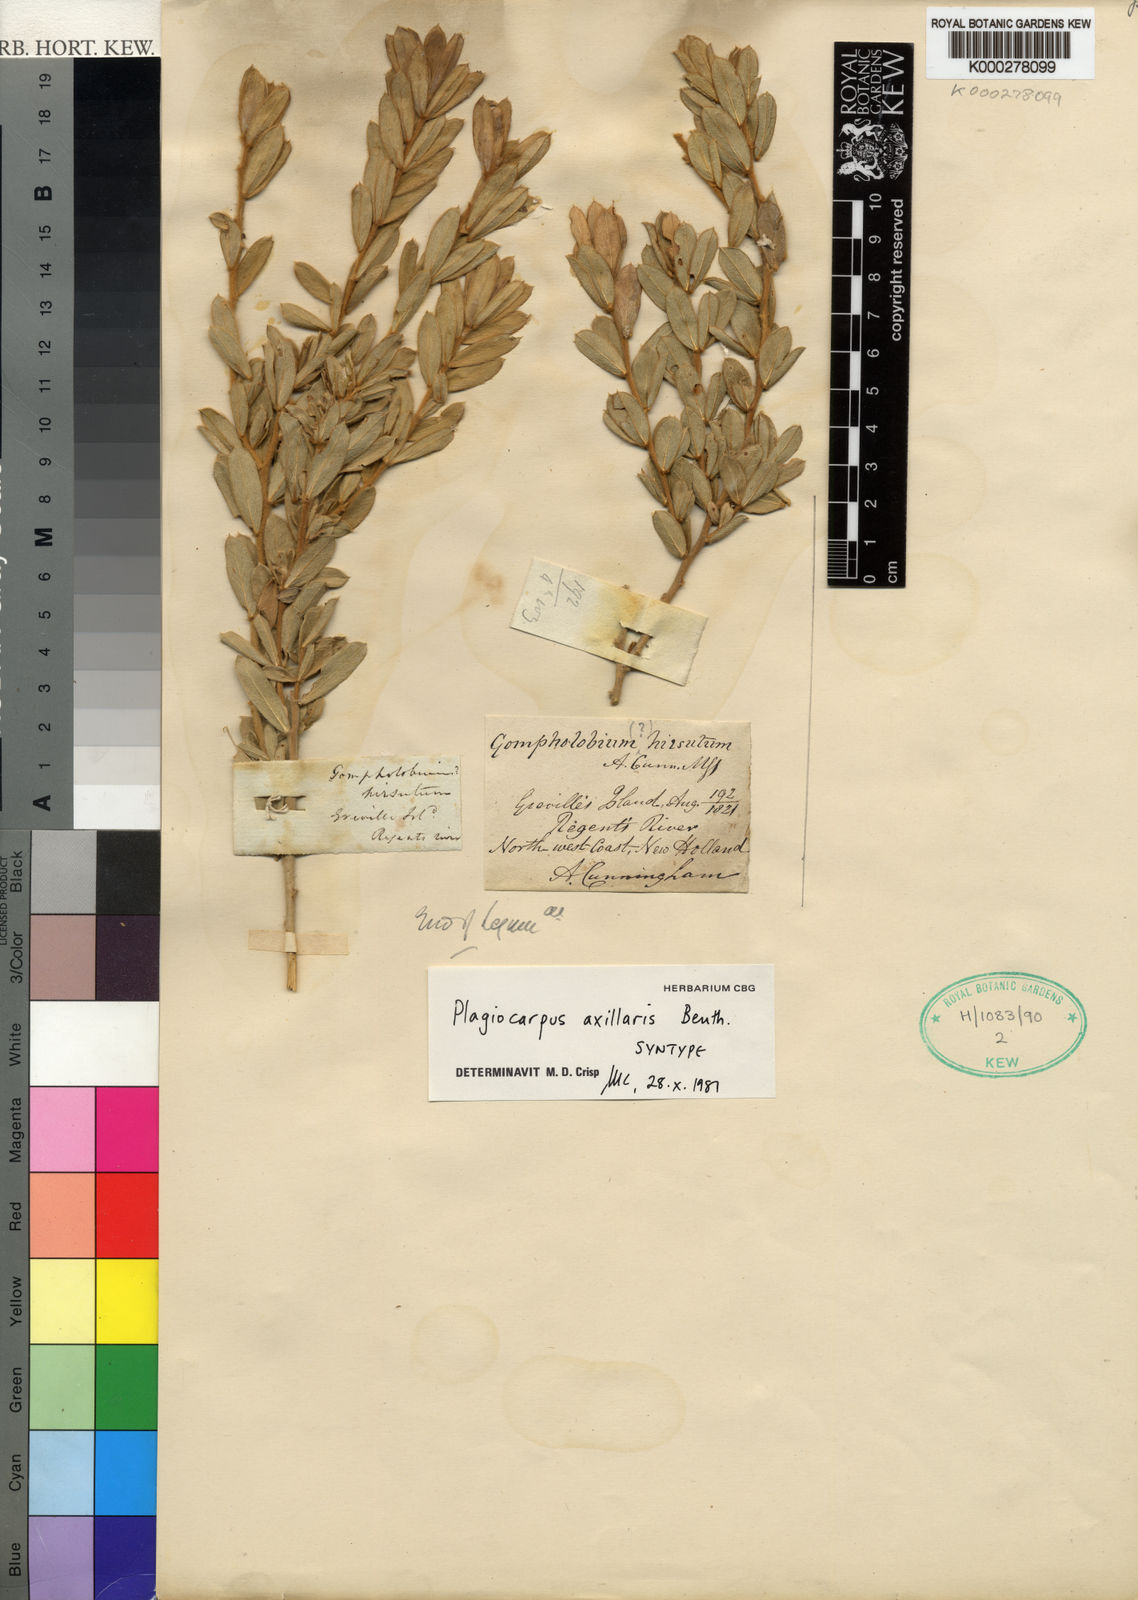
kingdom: Plantae
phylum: Tracheophyta
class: Magnoliopsida
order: Fabales
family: Fabaceae
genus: Plagiocarpus
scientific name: Plagiocarpus axillaris
